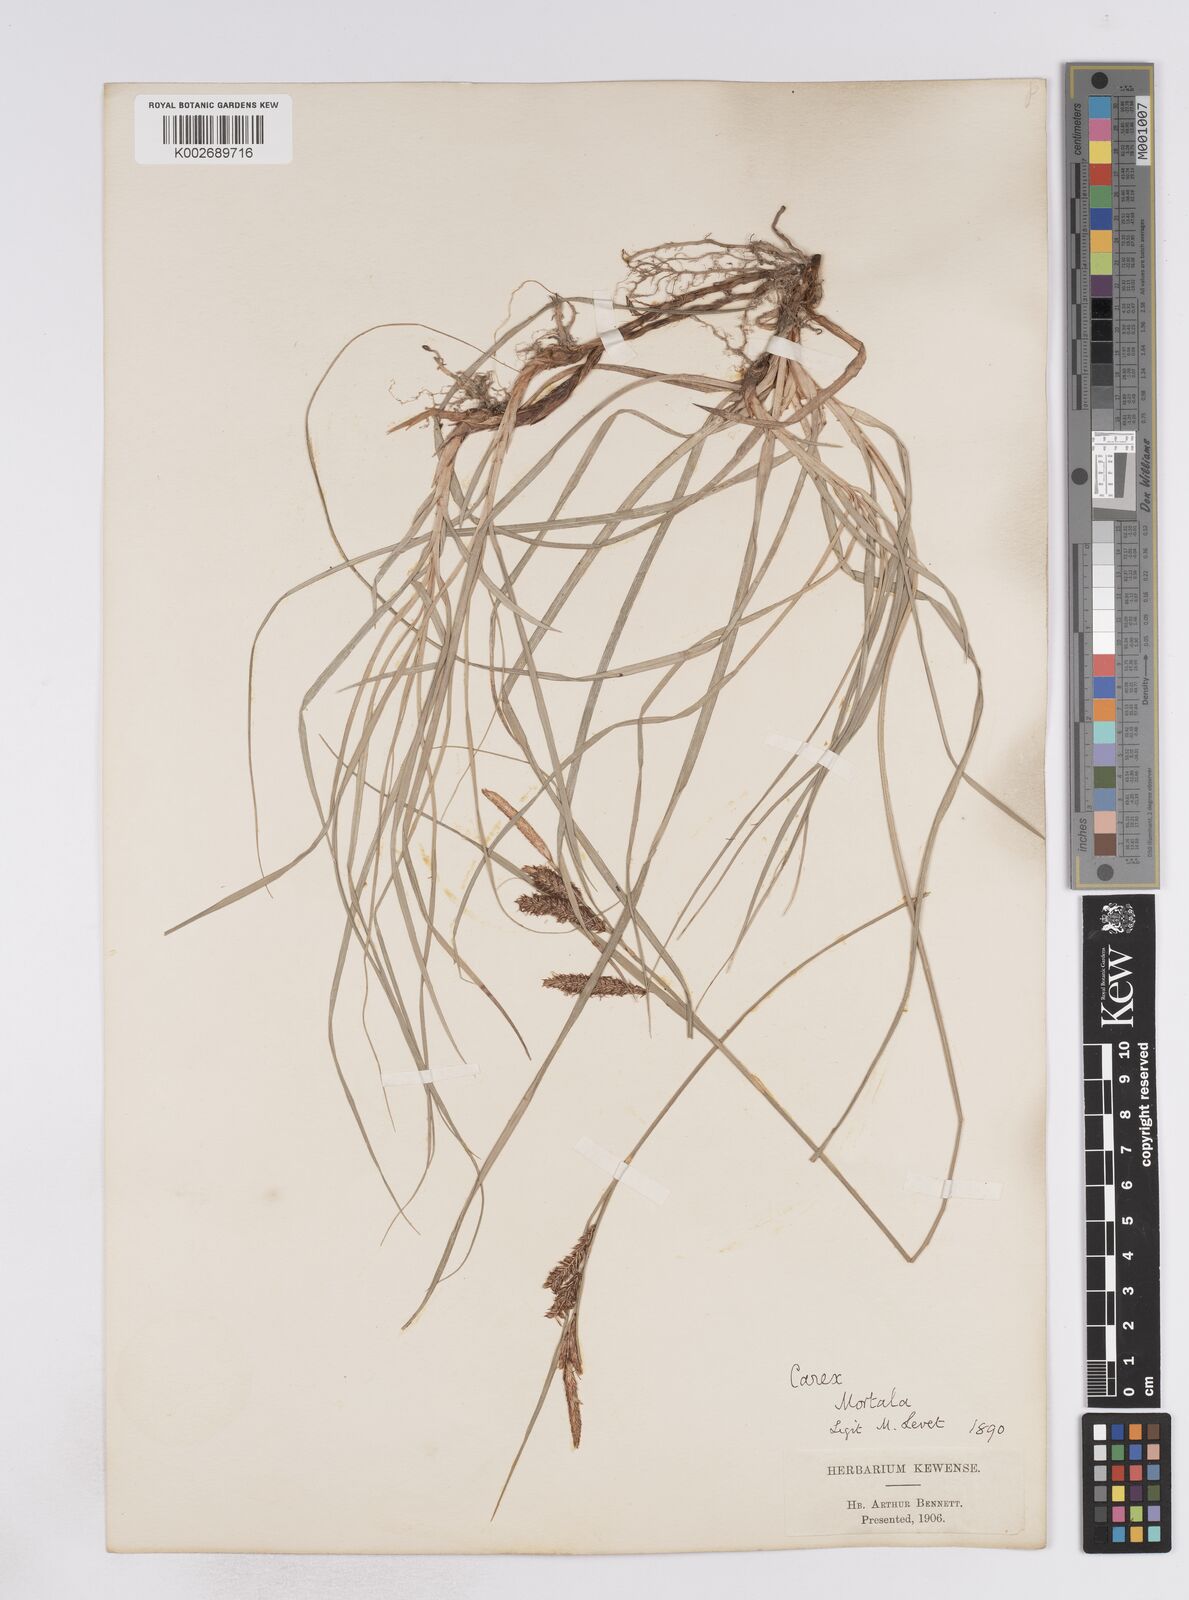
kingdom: Plantae
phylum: Tracheophyta
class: Liliopsida
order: Poales
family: Cyperaceae
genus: Carex
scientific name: Carex flacca
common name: Glaucous sedge
